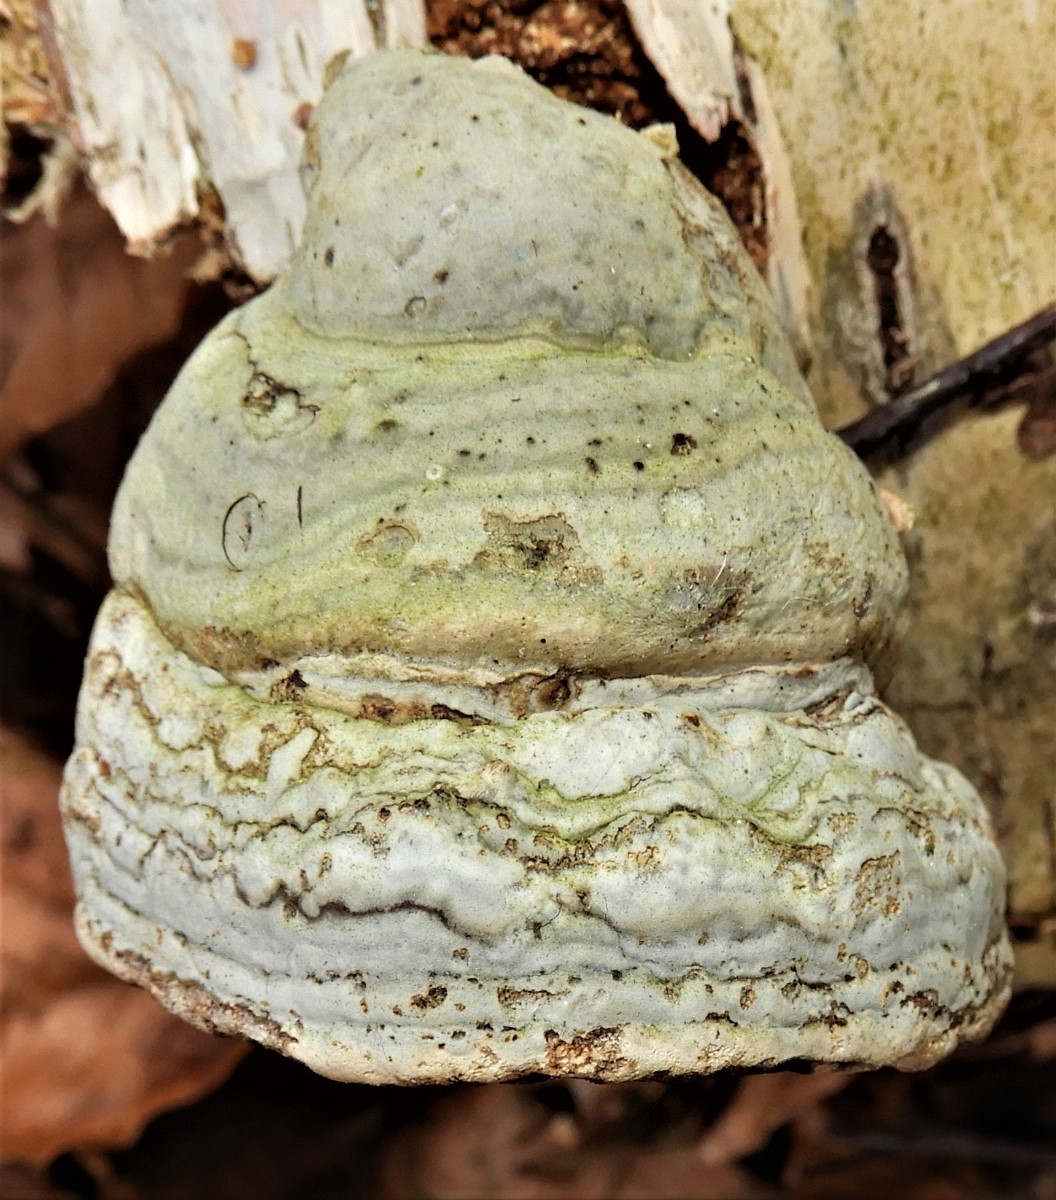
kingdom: Fungi
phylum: Basidiomycota
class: Agaricomycetes
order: Polyporales
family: Polyporaceae
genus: Fomes
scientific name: Fomes fomentarius
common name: tøndersvamp
